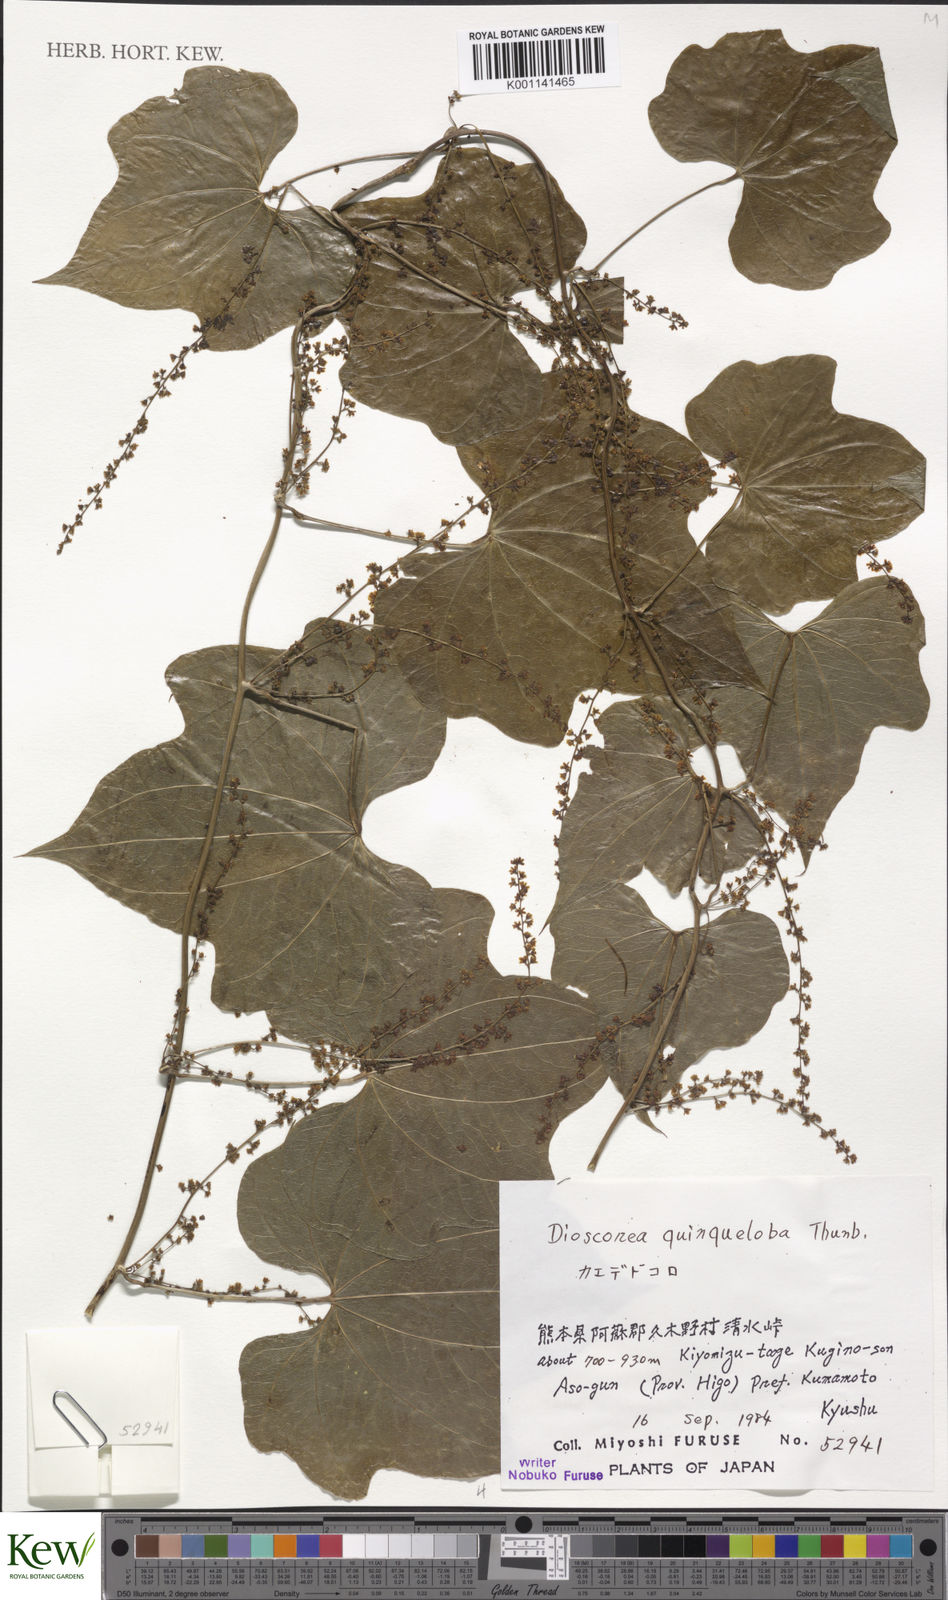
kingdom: Plantae
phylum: Tracheophyta
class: Liliopsida
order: Dioscoreales
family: Dioscoreaceae
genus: Dioscorea
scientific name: Dioscorea quinquelobata
